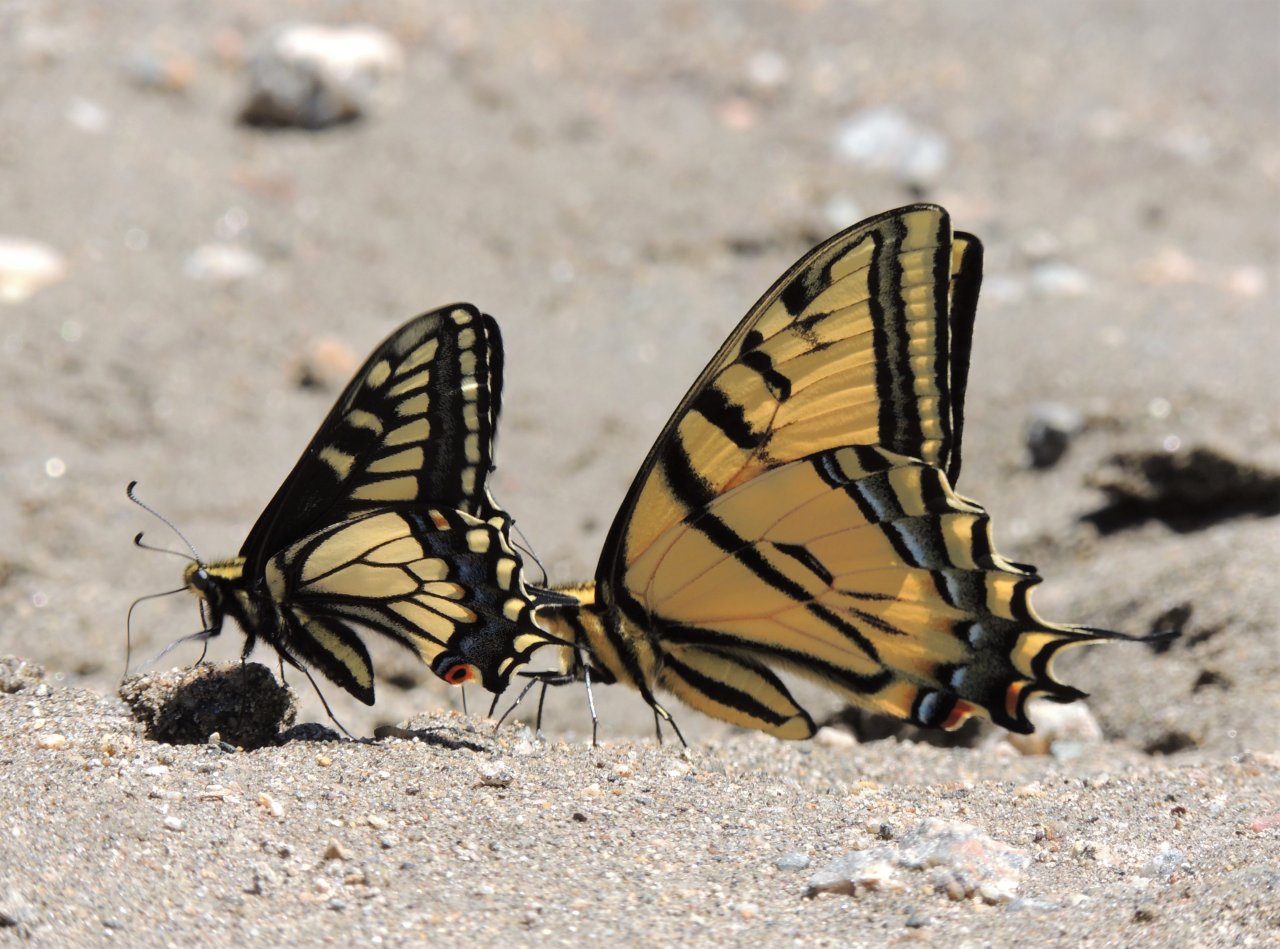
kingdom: Animalia
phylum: Arthropoda
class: Insecta
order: Lepidoptera
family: Papilionidae
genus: Papilio
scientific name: Papilio zelicaon
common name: Anise Swallowtail
